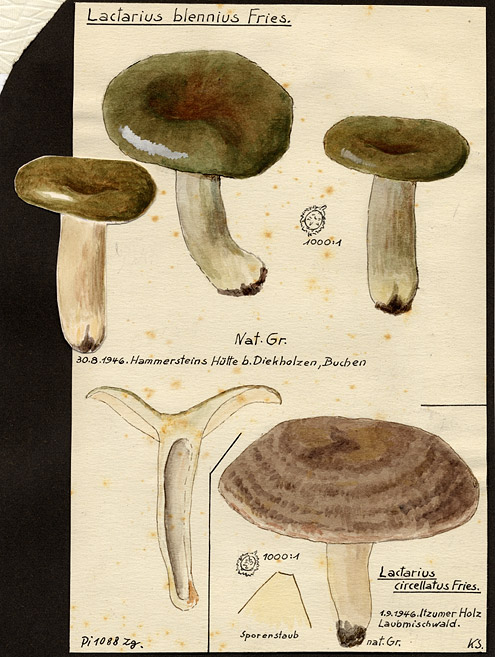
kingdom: Fungi
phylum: Basidiomycota
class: Agaricomycetes
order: Russulales
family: Russulaceae
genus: Lactarius
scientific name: Lactarius blennius
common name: Beech milkcap
